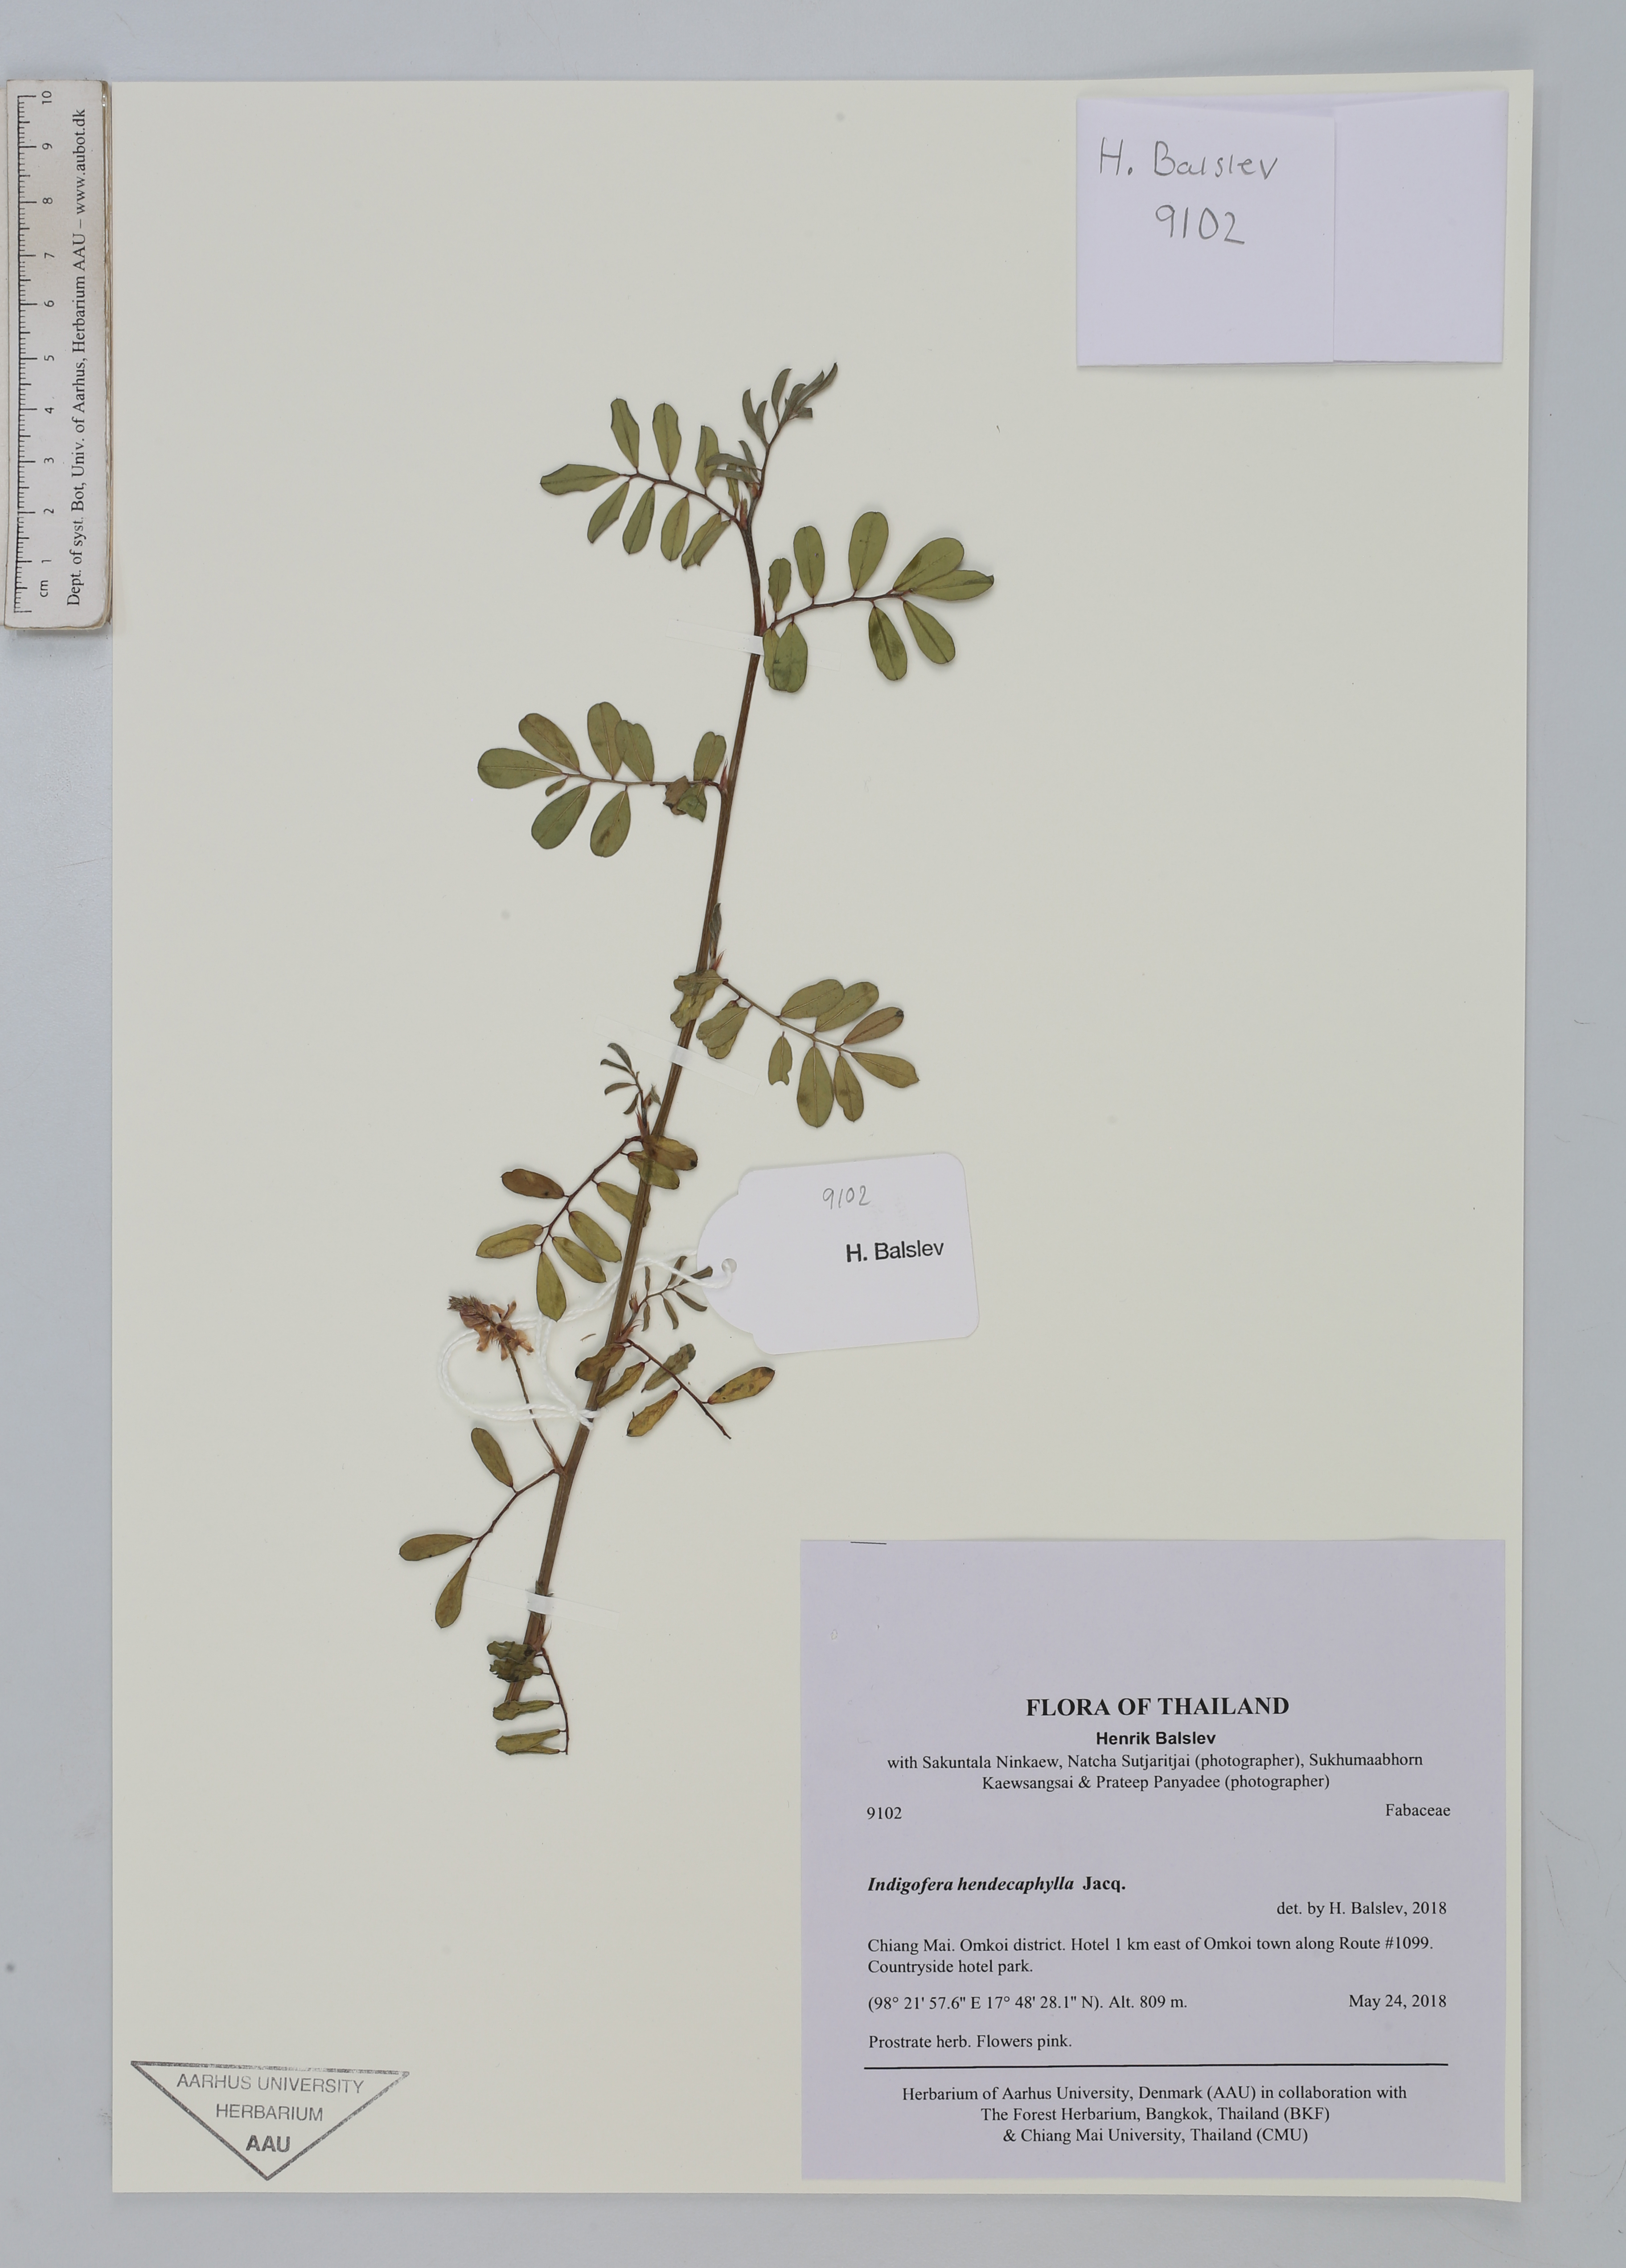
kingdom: Plantae
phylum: Tracheophyta
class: Magnoliopsida
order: Fabales
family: Fabaceae
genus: Indigofera
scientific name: Indigofera hendecaphylla
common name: Trailing indigo
